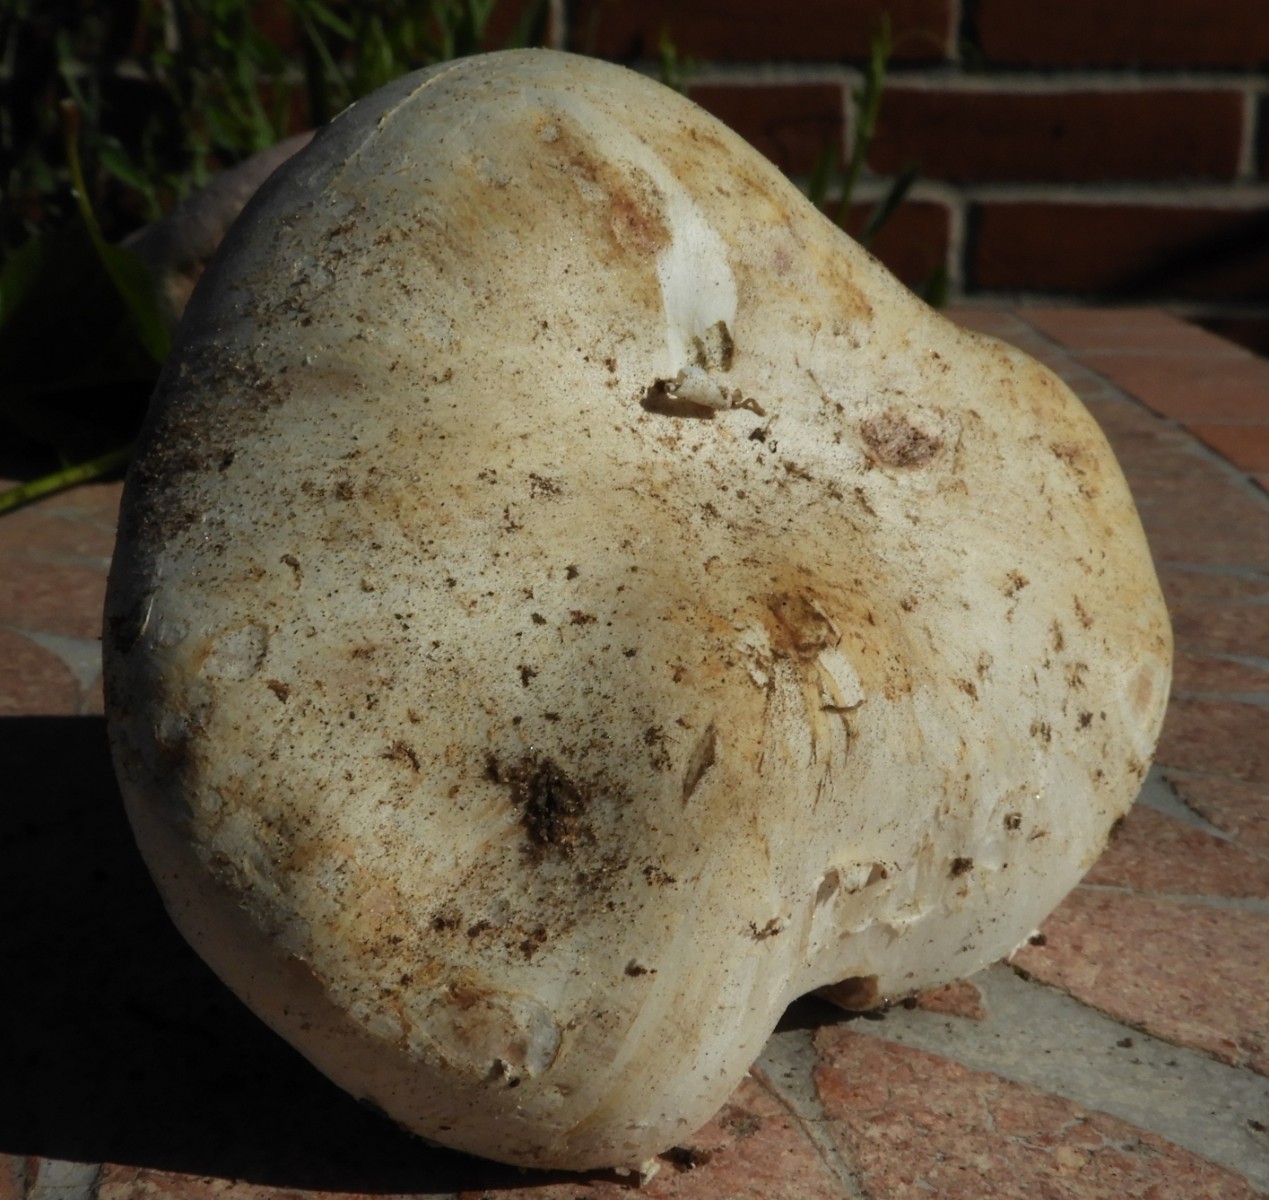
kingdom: Fungi
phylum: Basidiomycota
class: Agaricomycetes
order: Agaricales
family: Agaricaceae
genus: Agaricus
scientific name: Agaricus bitorquis
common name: vej-champignon
